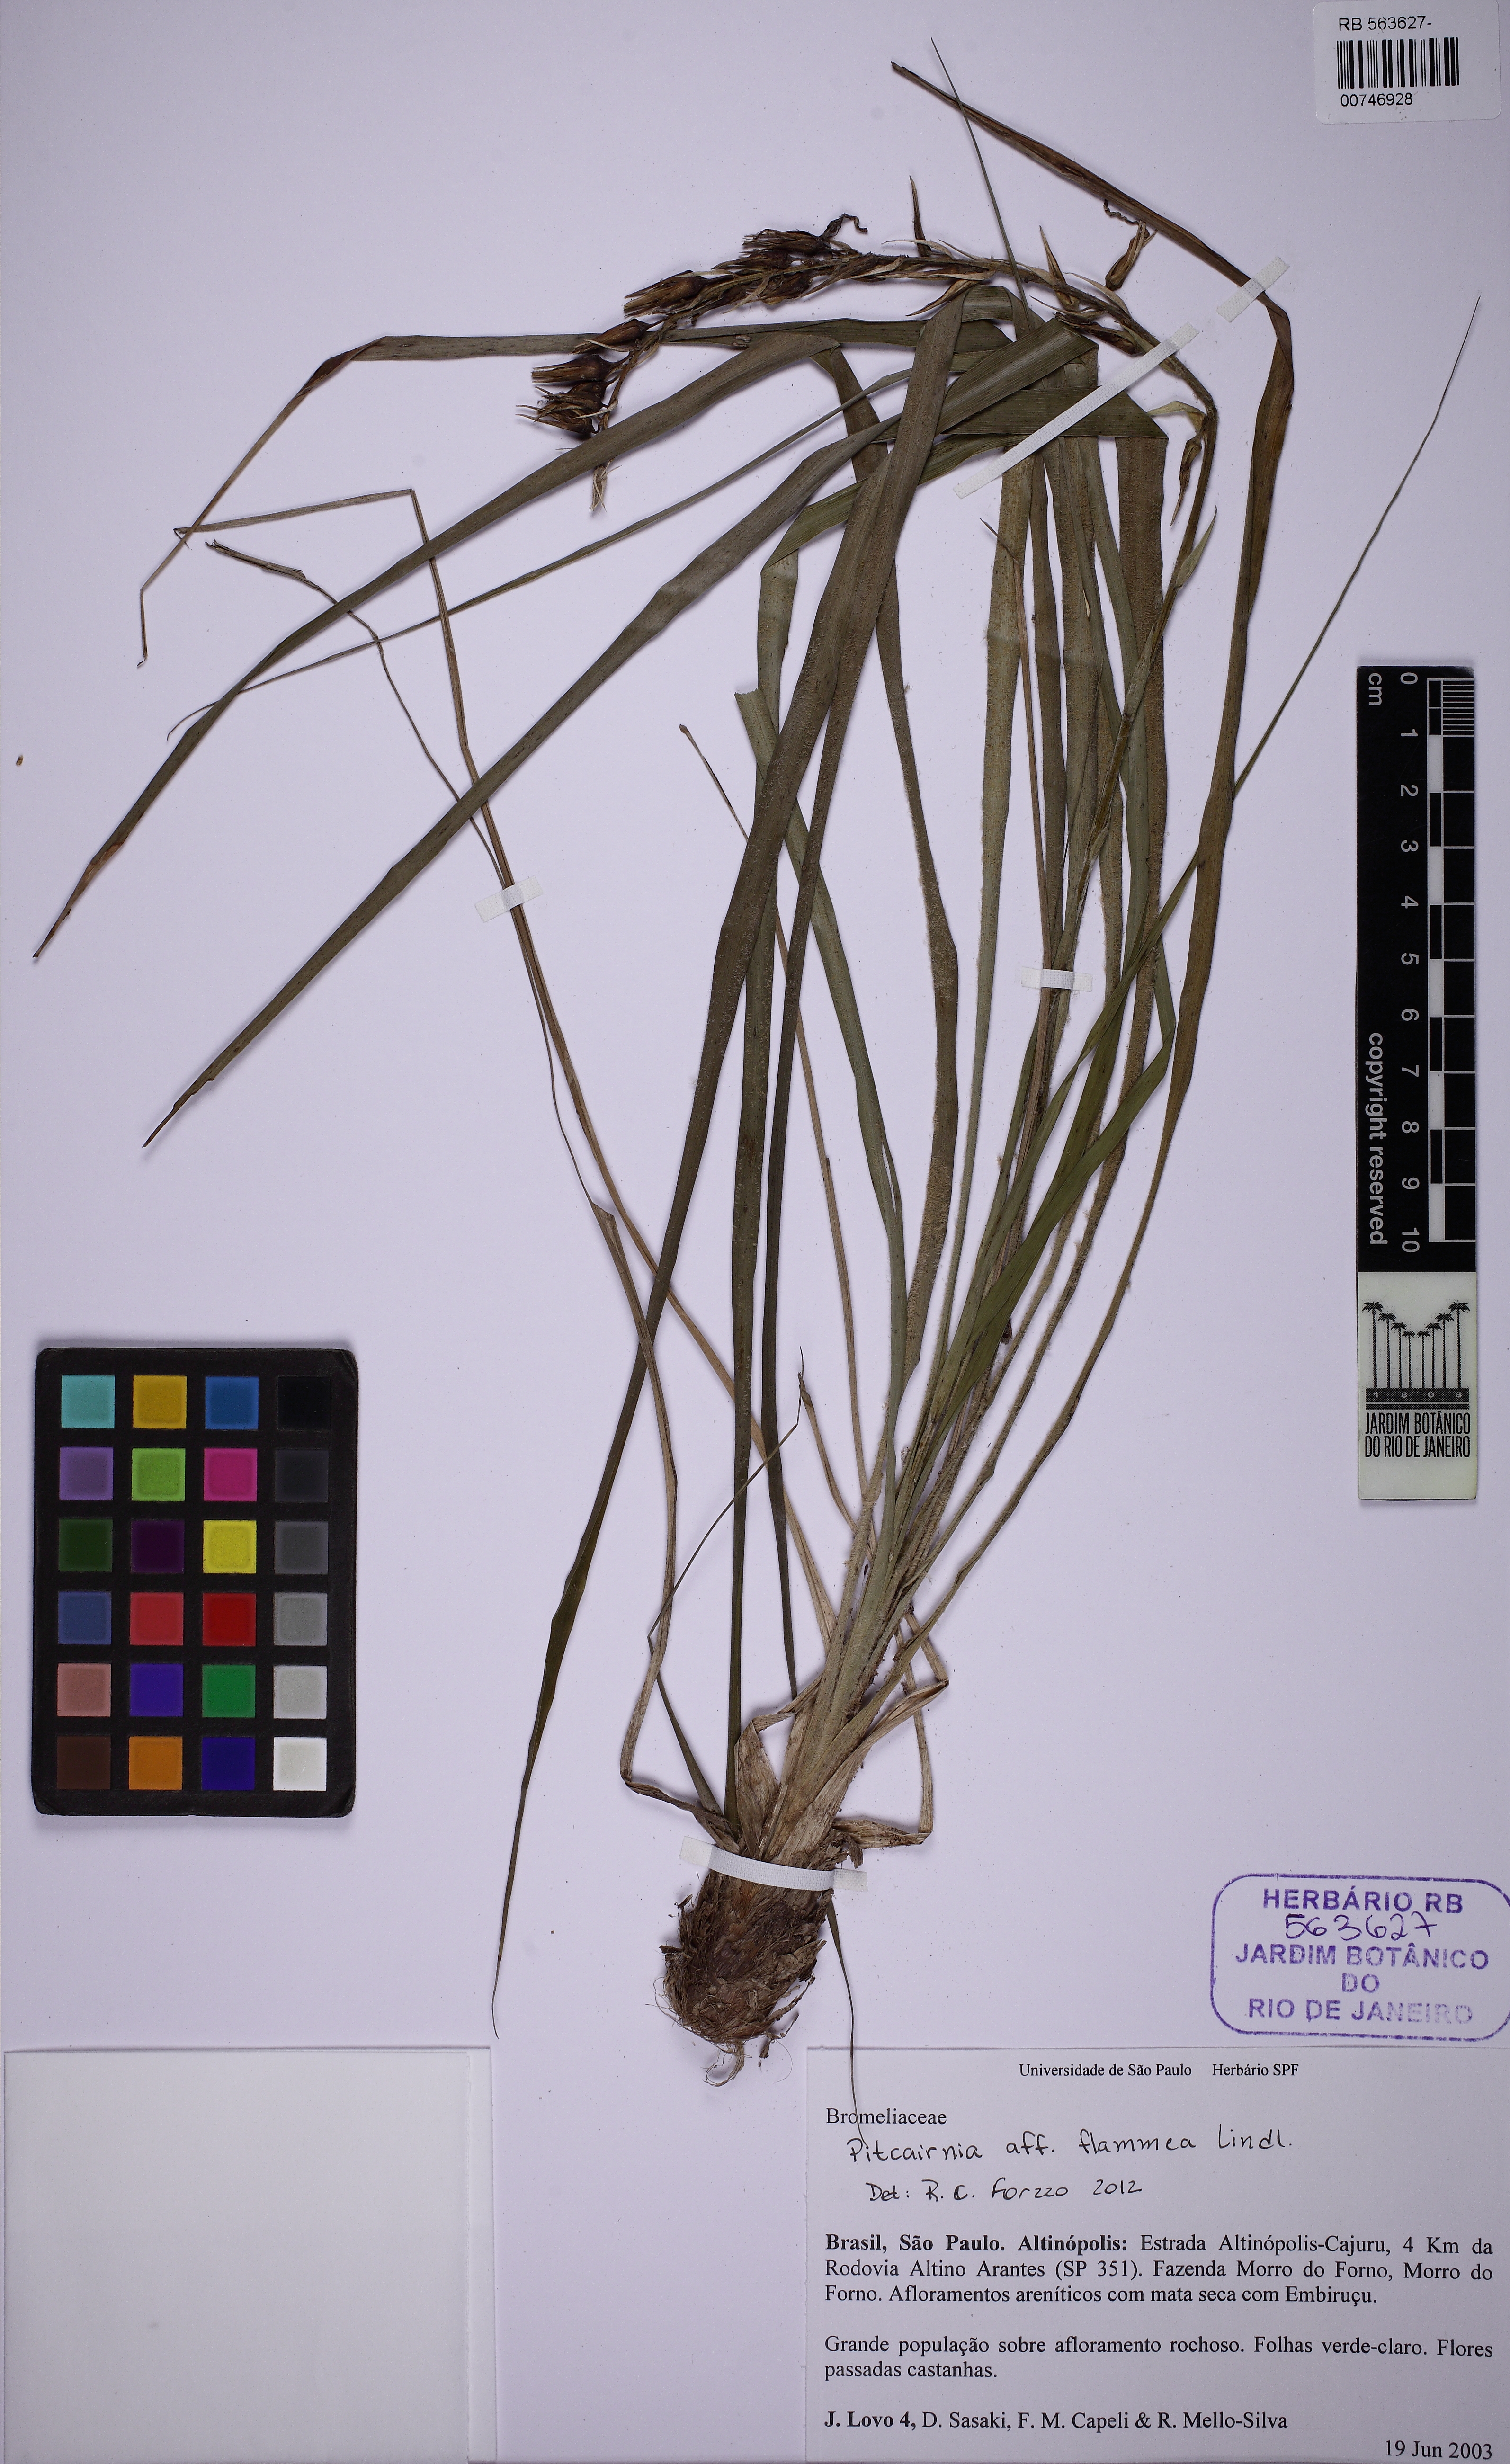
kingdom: Plantae
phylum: Tracheophyta
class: Liliopsida
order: Poales
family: Bromeliaceae
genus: Pitcairnia
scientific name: Pitcairnia flammea
